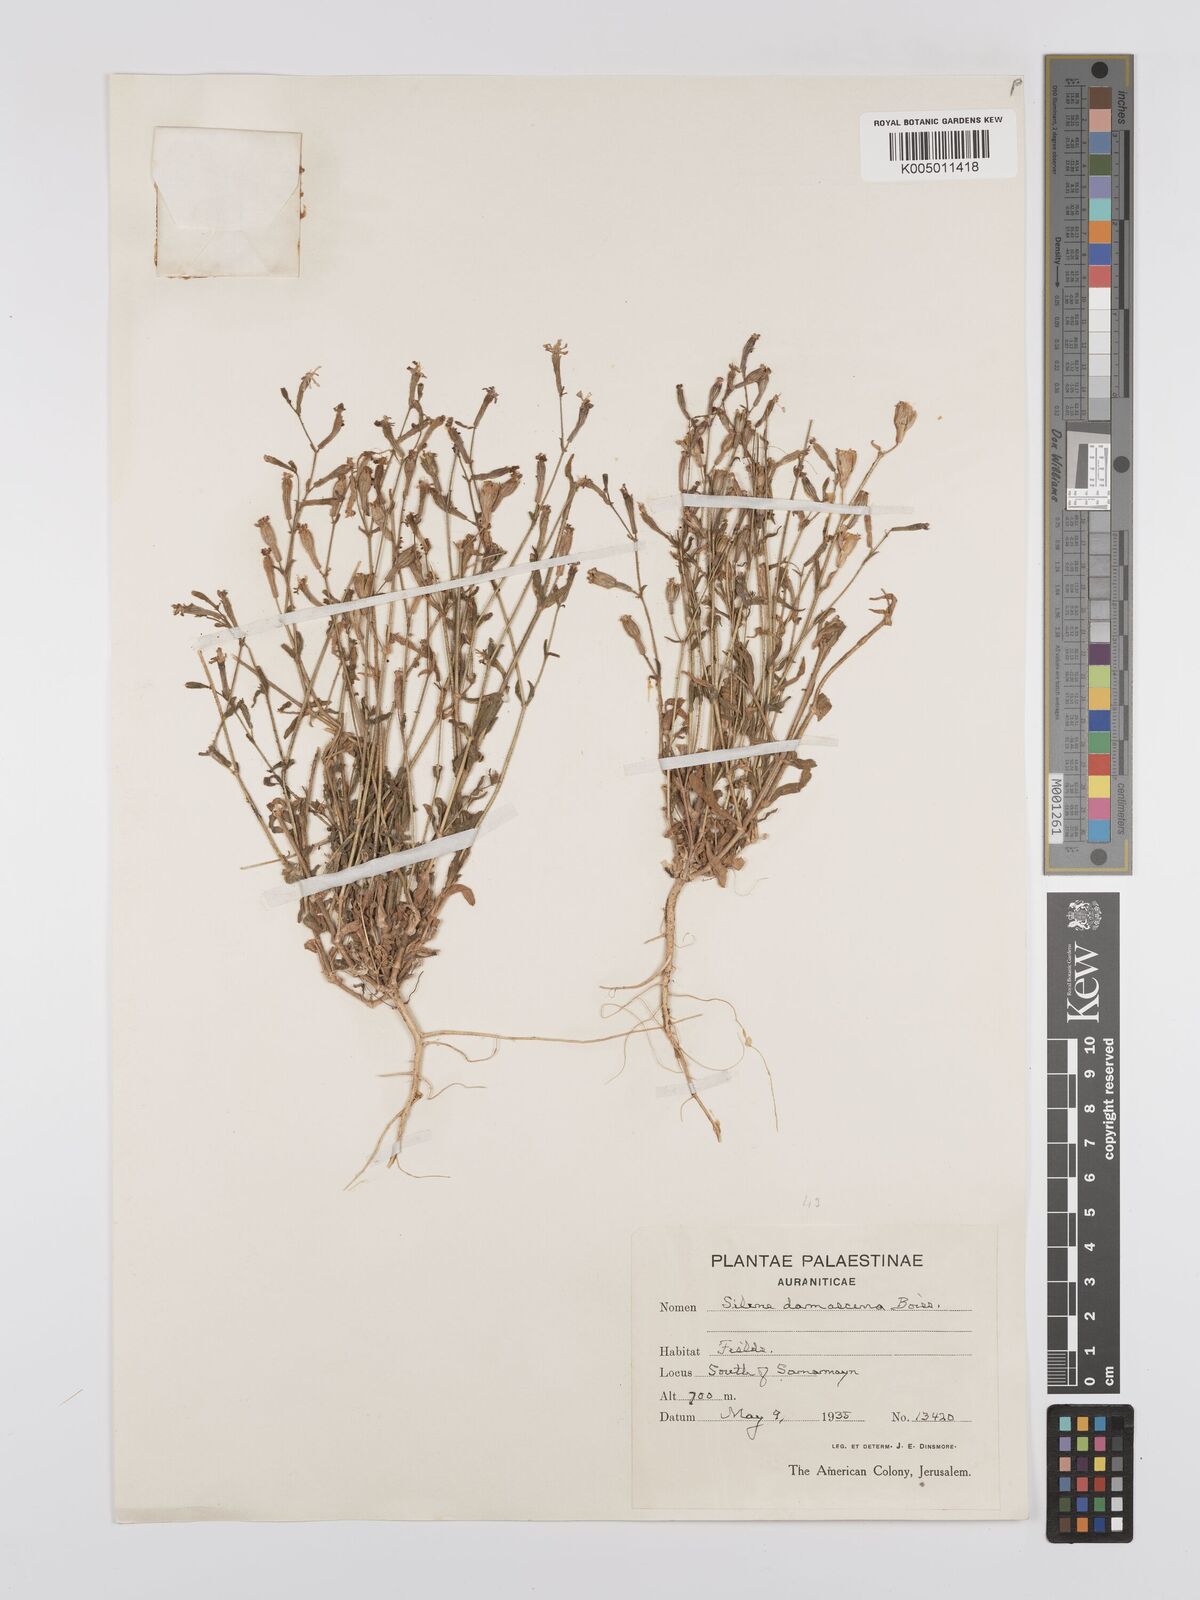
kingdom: Plantae
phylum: Tracheophyta
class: Magnoliopsida
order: Caryophyllales
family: Caryophyllaceae
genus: Silene
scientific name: Silene damascena
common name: Damascus catchfly
